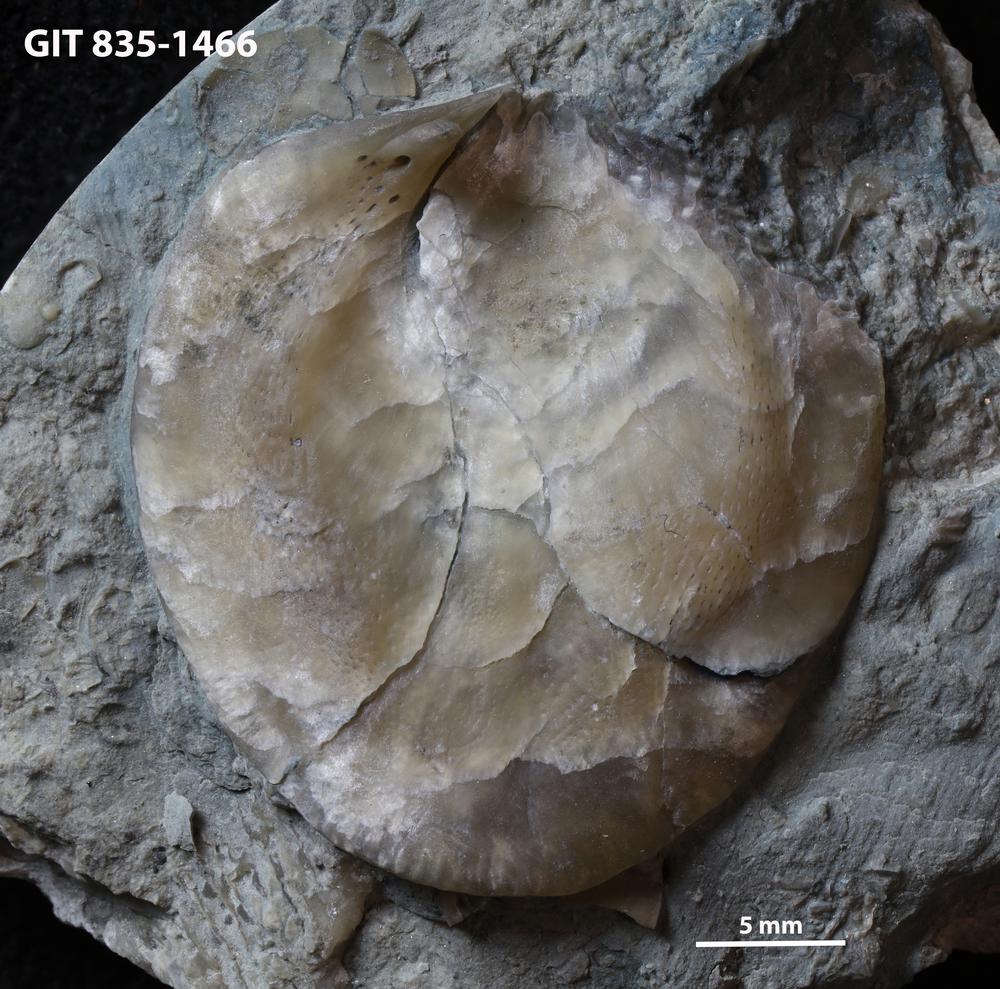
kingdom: Animalia
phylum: Brachiopoda
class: Rhynchonellata
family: Atrypidae
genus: Atrypa
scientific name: Atrypa reticularis
